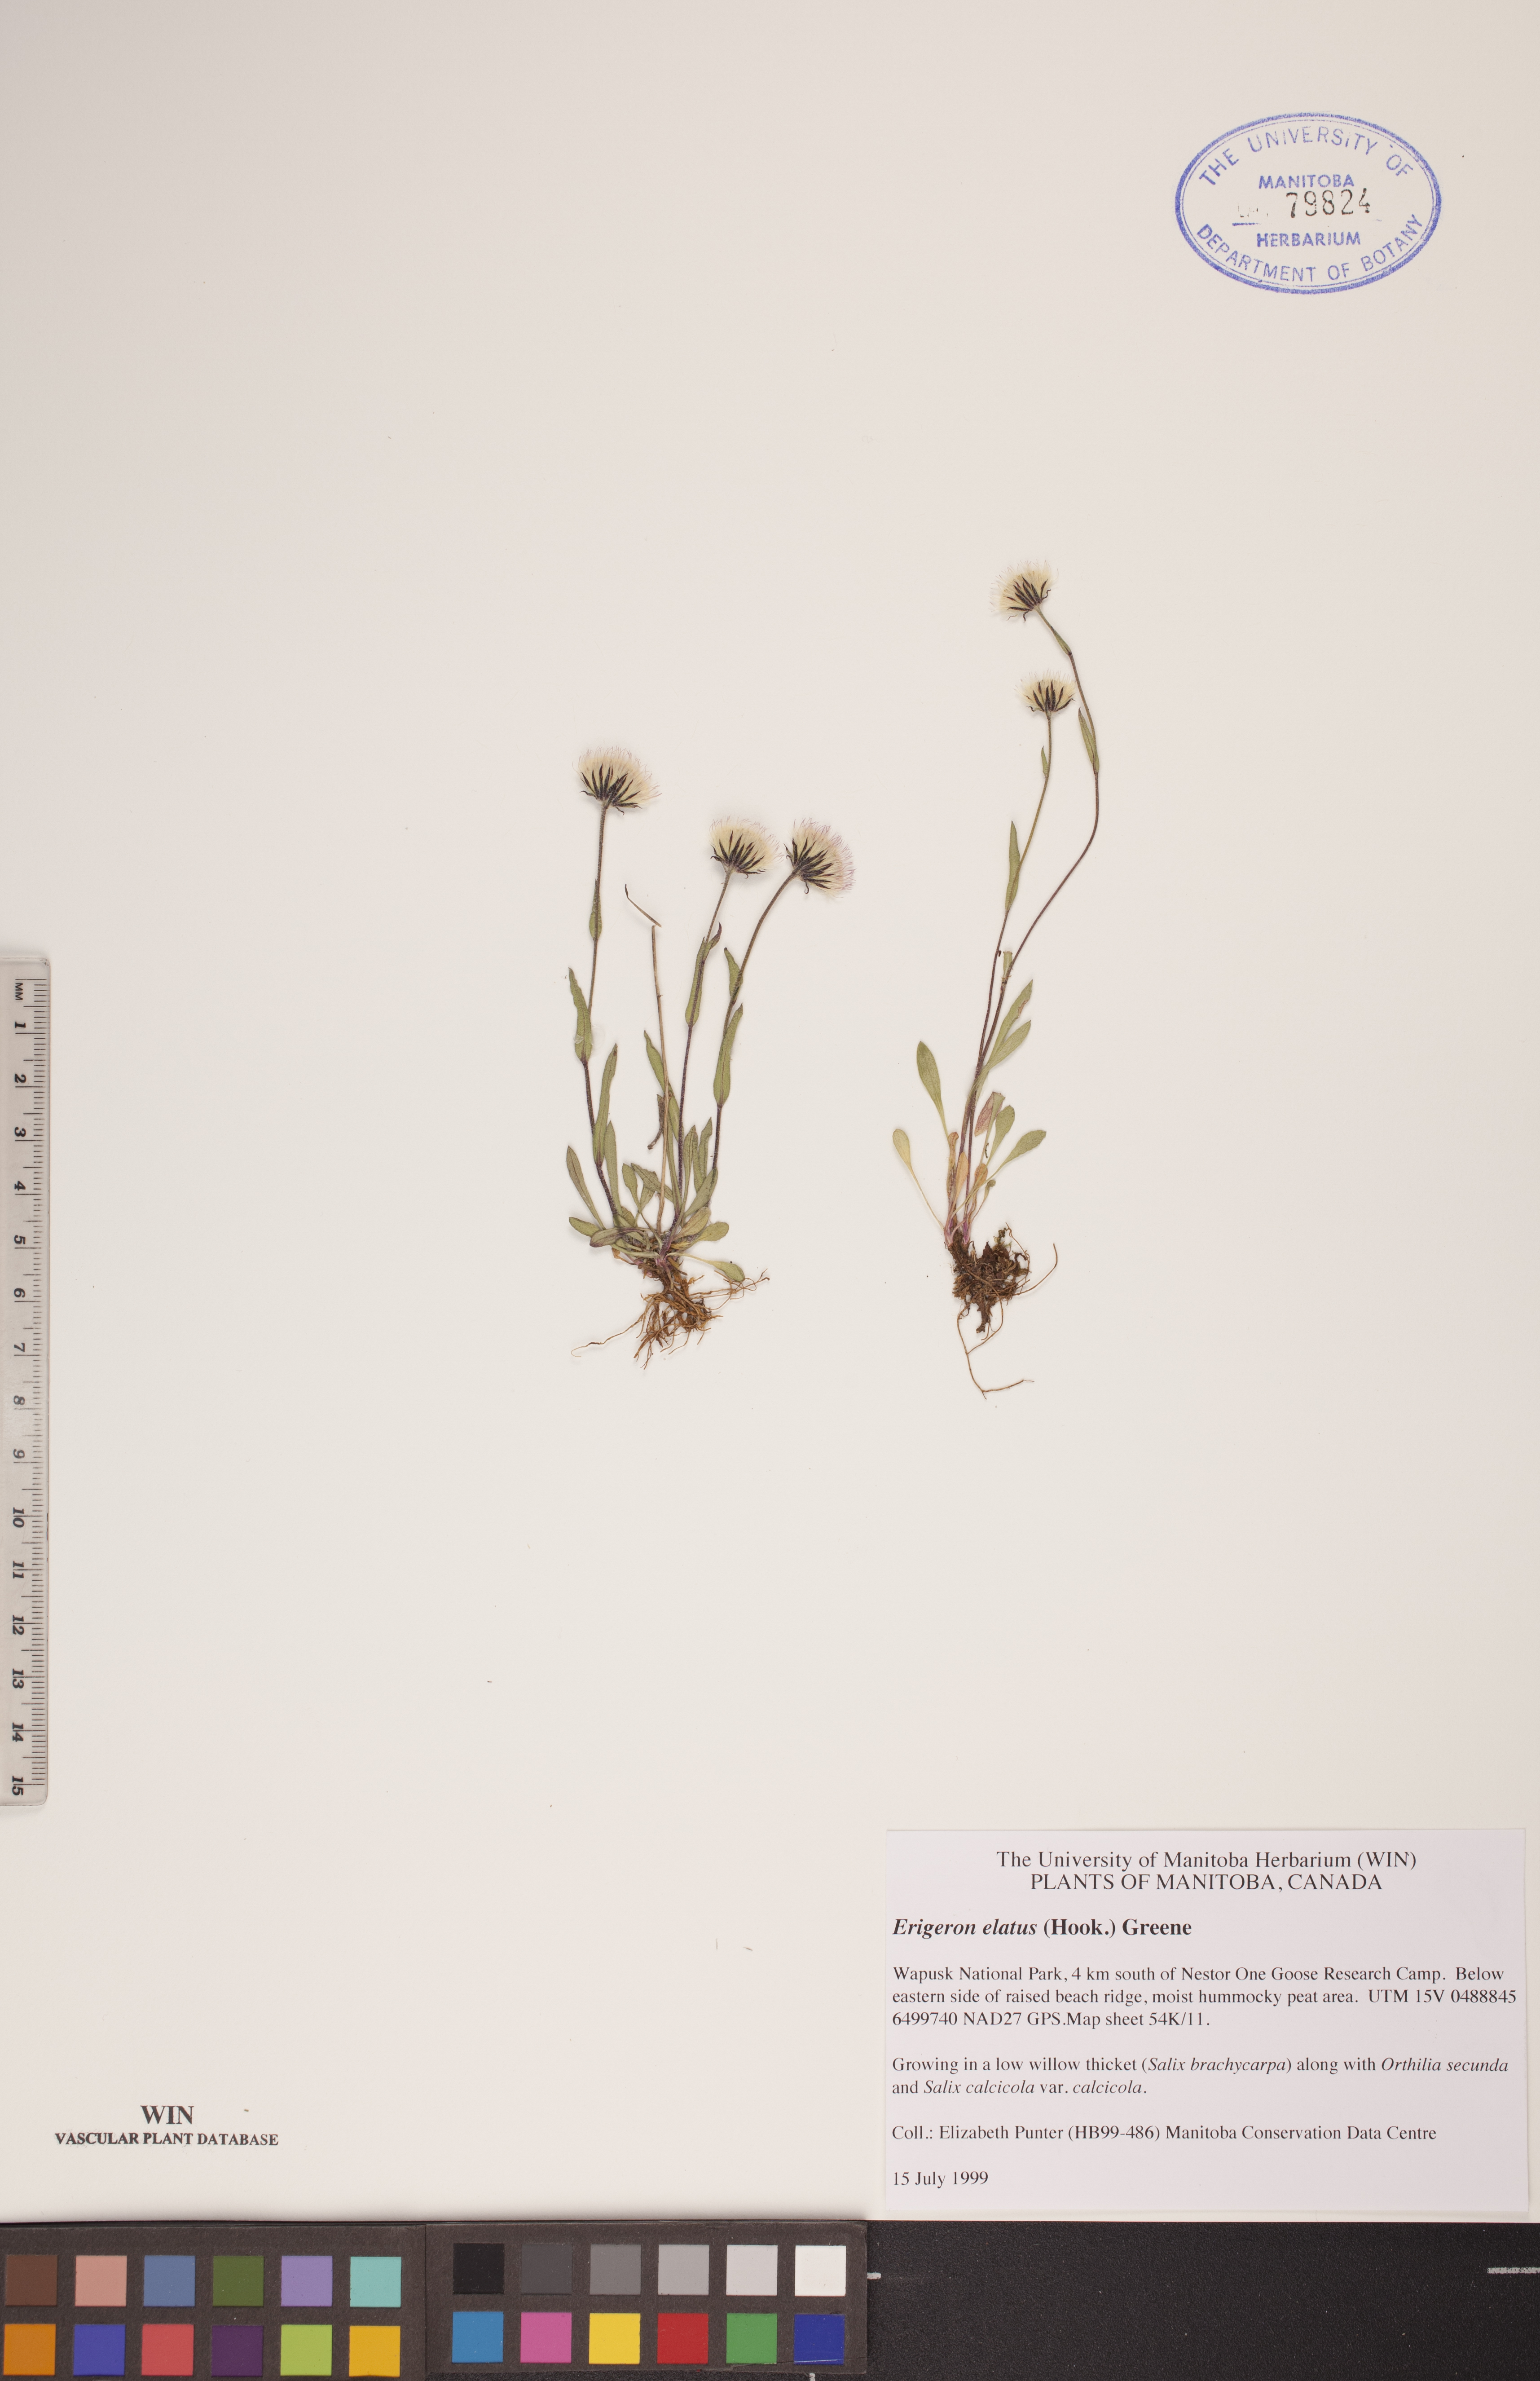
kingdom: Plantae
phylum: Tracheophyta
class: Magnoliopsida
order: Asterales
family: Asteraceae
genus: Erigeron
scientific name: Erigeron elatus
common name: Swamp fleabane
